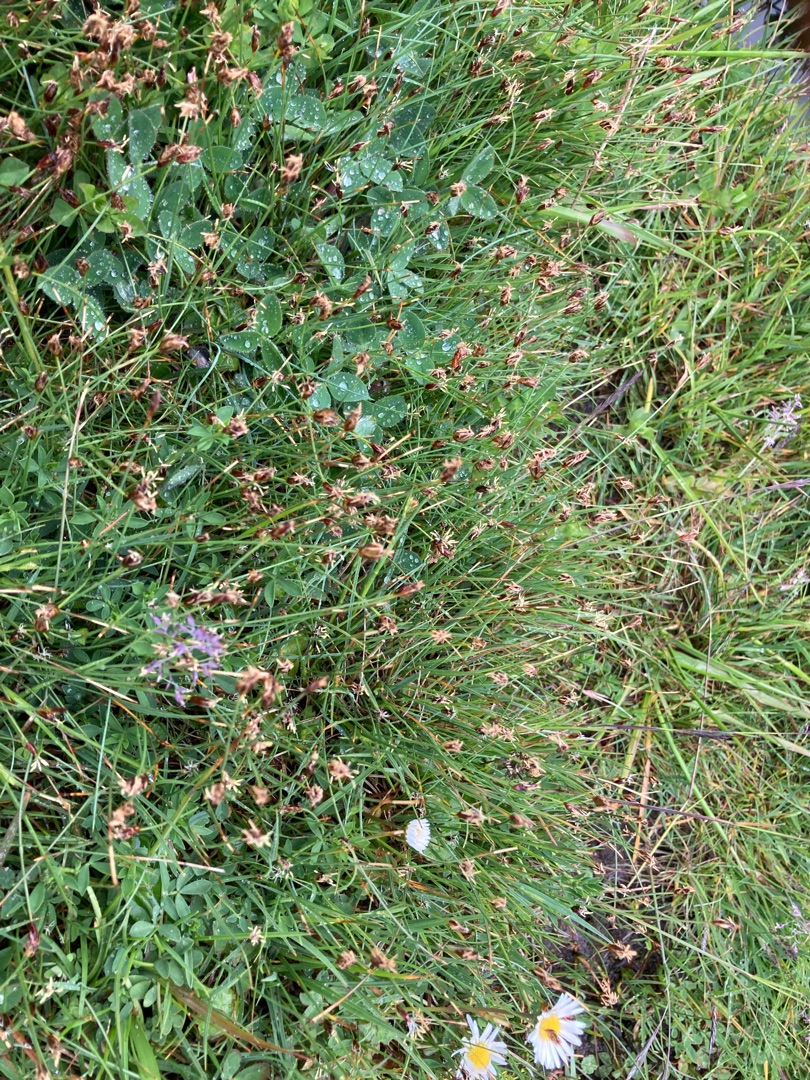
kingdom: Plantae
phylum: Tracheophyta
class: Liliopsida
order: Poales
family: Cyperaceae
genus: Eleocharis
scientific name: Eleocharis quinqueflora
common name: Fåblomstret kogleaks
